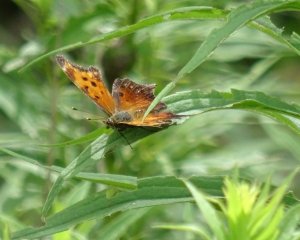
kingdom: Animalia
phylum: Arthropoda
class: Insecta
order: Lepidoptera
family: Nymphalidae
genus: Polygonia
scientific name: Polygonia
